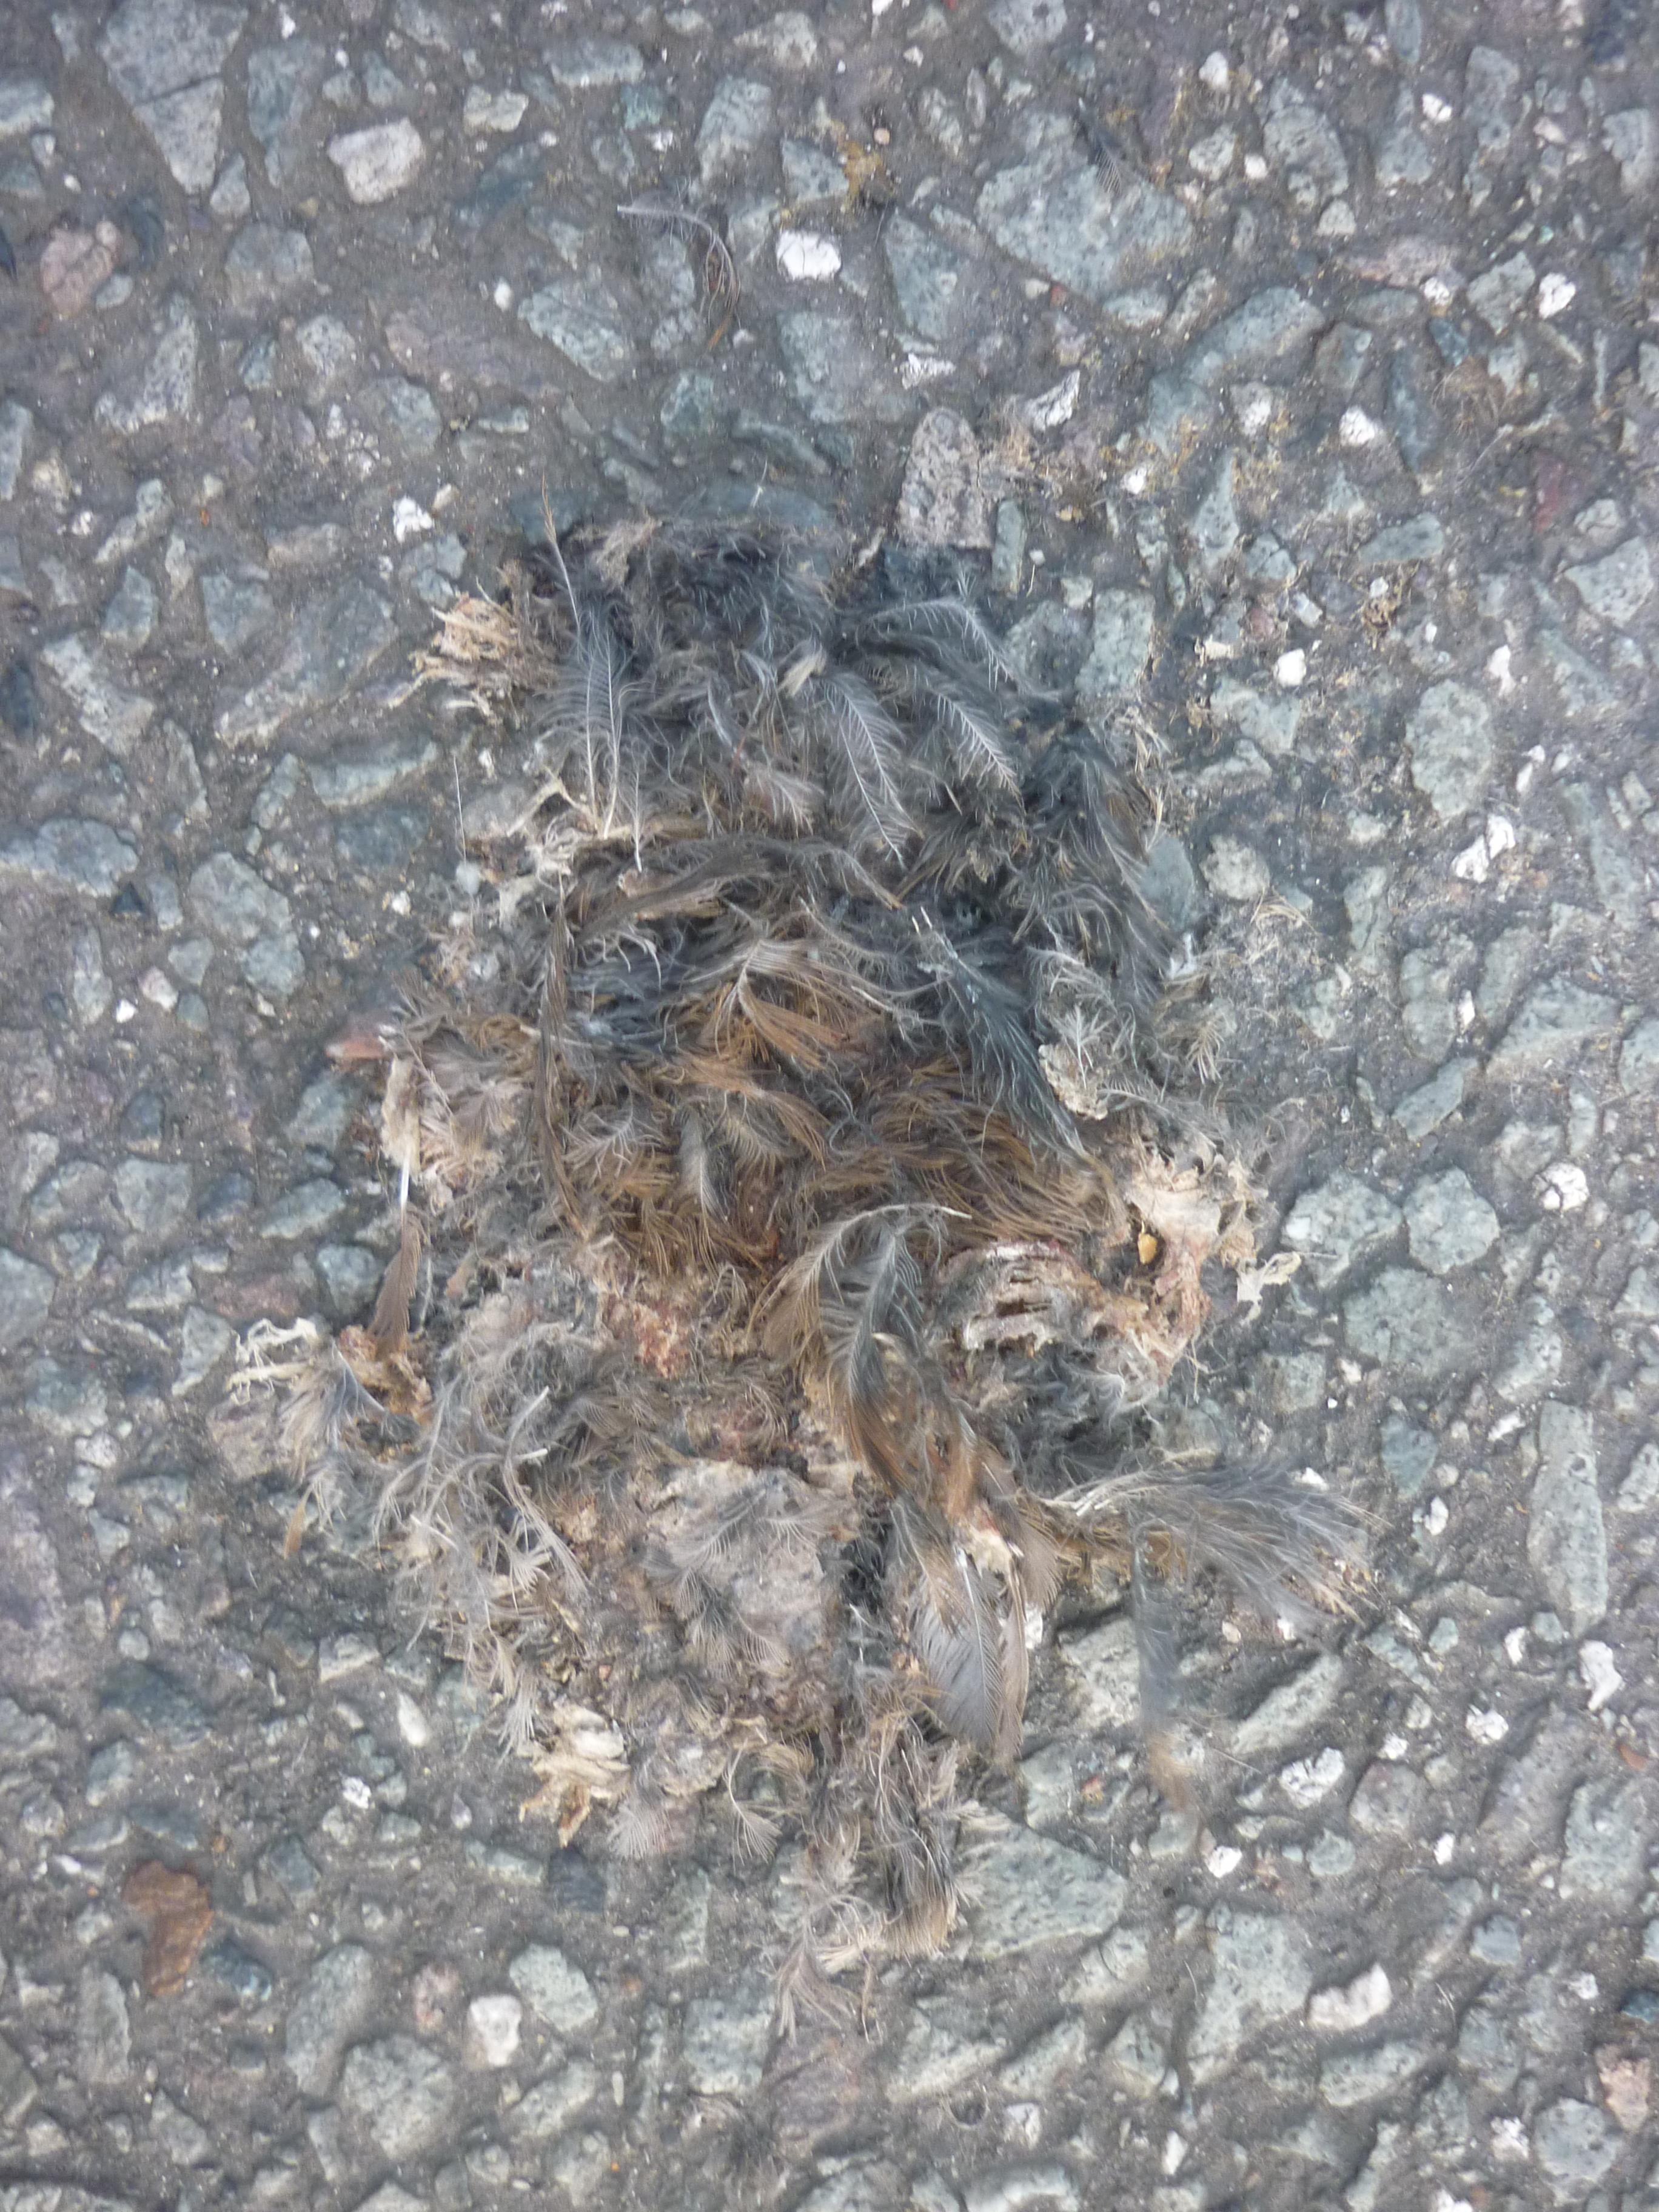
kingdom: Animalia
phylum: Chordata
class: Aves
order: Passeriformes
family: Passeridae
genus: Passer
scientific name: Passer domesticus
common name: House sparrow
